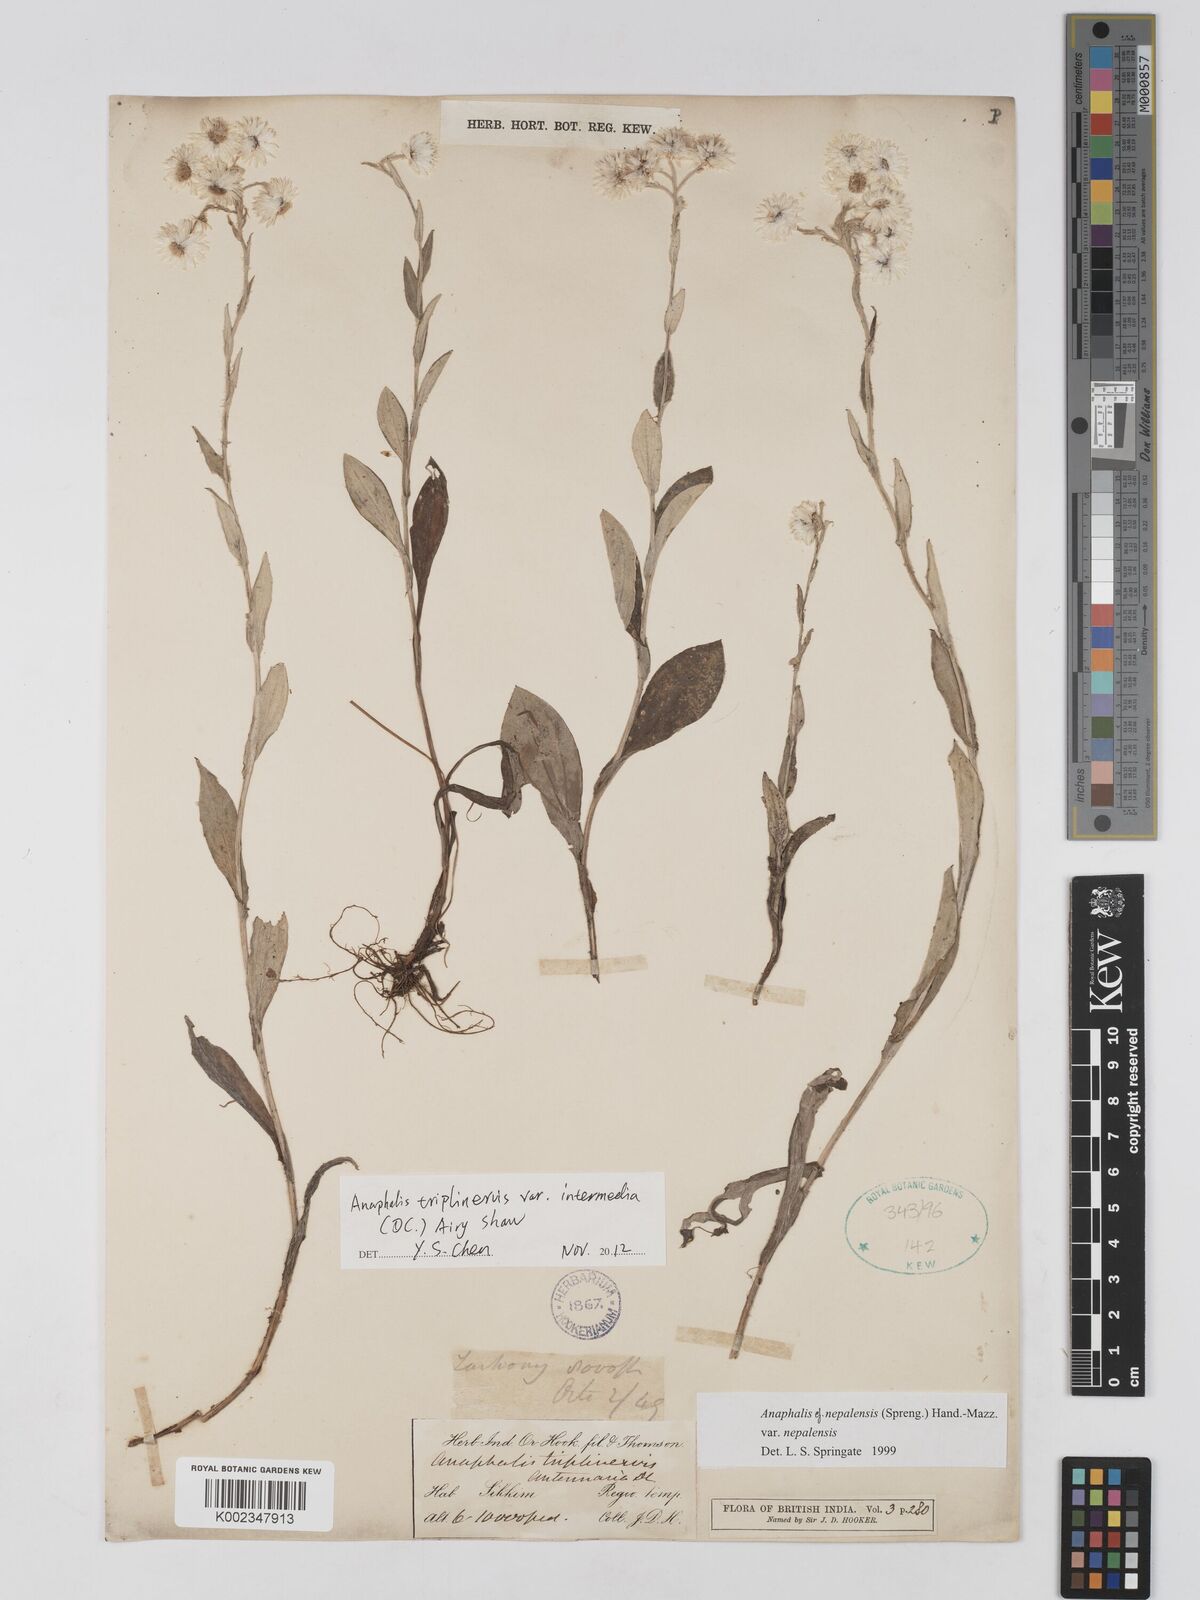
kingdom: Plantae
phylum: Tracheophyta
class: Magnoliopsida
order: Asterales
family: Asteraceae
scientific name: Asteraceae
